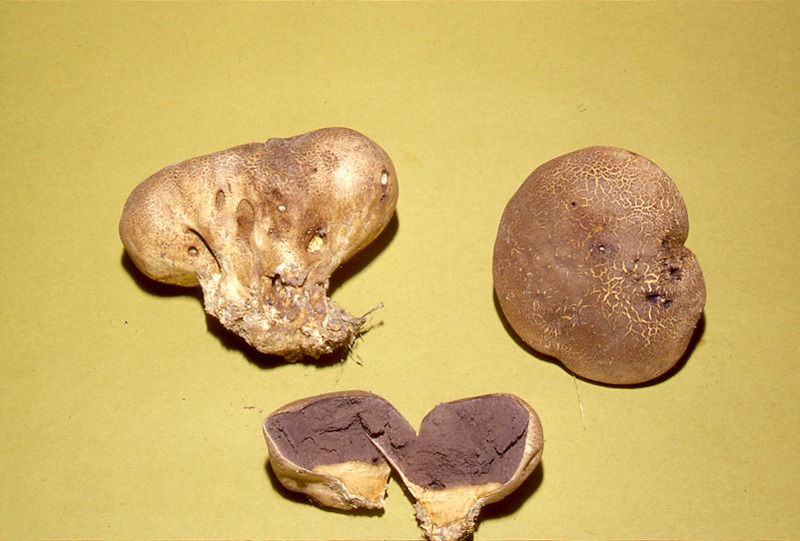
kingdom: Fungi
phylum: Basidiomycota
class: Agaricomycetes
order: Boletales
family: Sclerodermataceae
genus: Scleroderma
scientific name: Scleroderma verrucosum
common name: Scaly earthball
